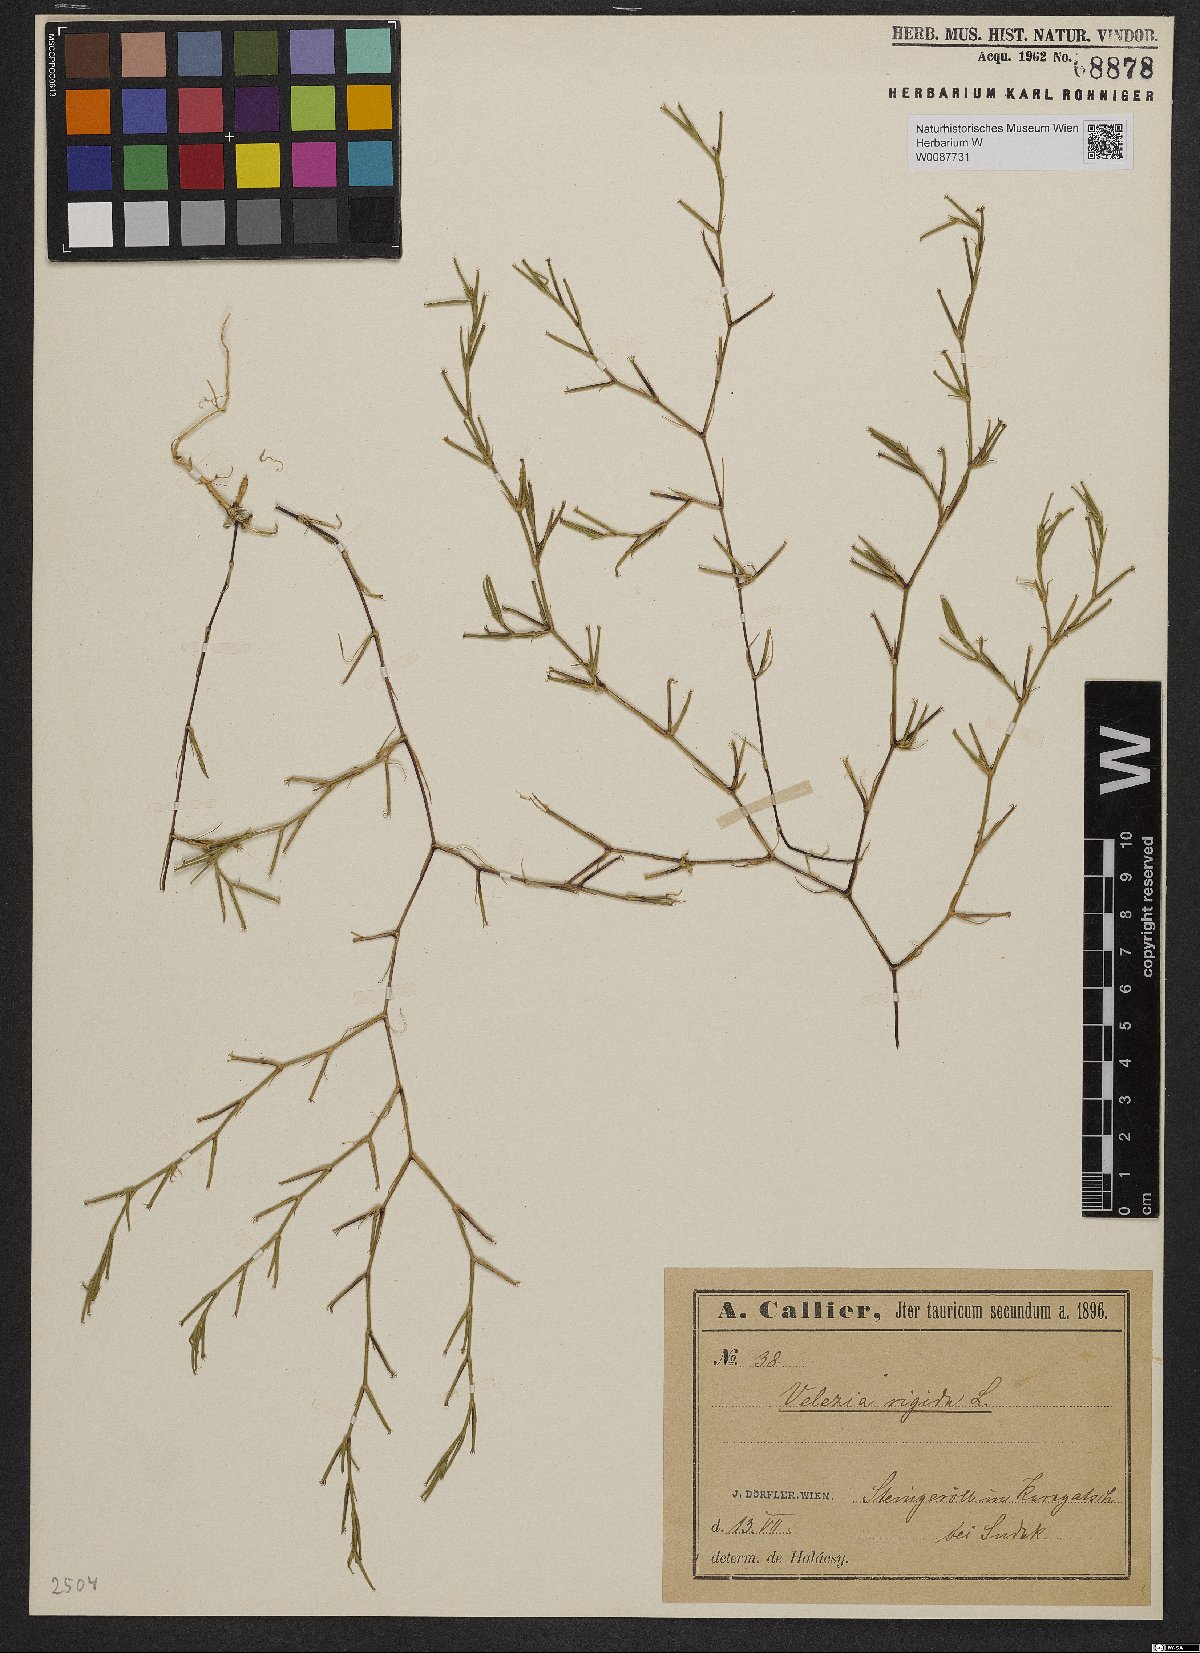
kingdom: Plantae
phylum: Tracheophyta
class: Magnoliopsida
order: Caryophyllales
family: Caryophyllaceae
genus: Dianthus
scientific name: Dianthus nudiflorus
